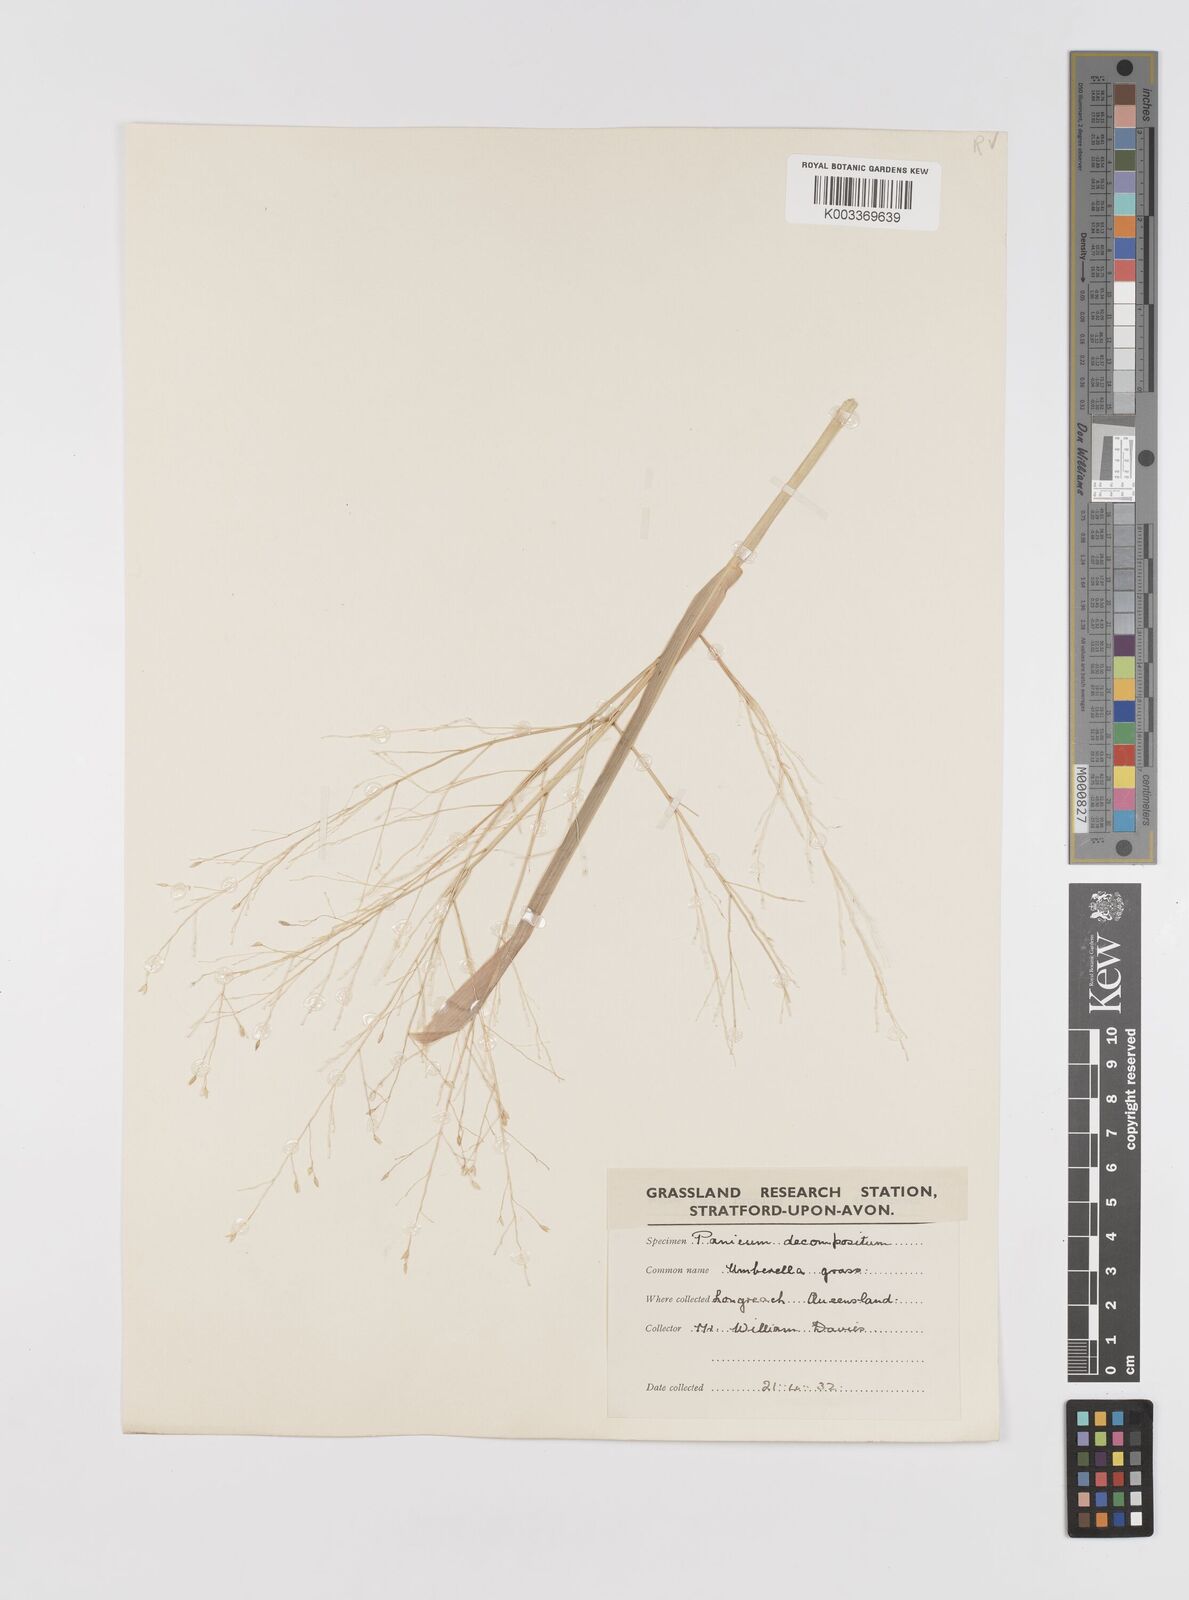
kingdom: Plantae
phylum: Tracheophyta
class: Liliopsida
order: Poales
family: Poaceae
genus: Panicum
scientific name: Panicum decompositum
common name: Australian millet
